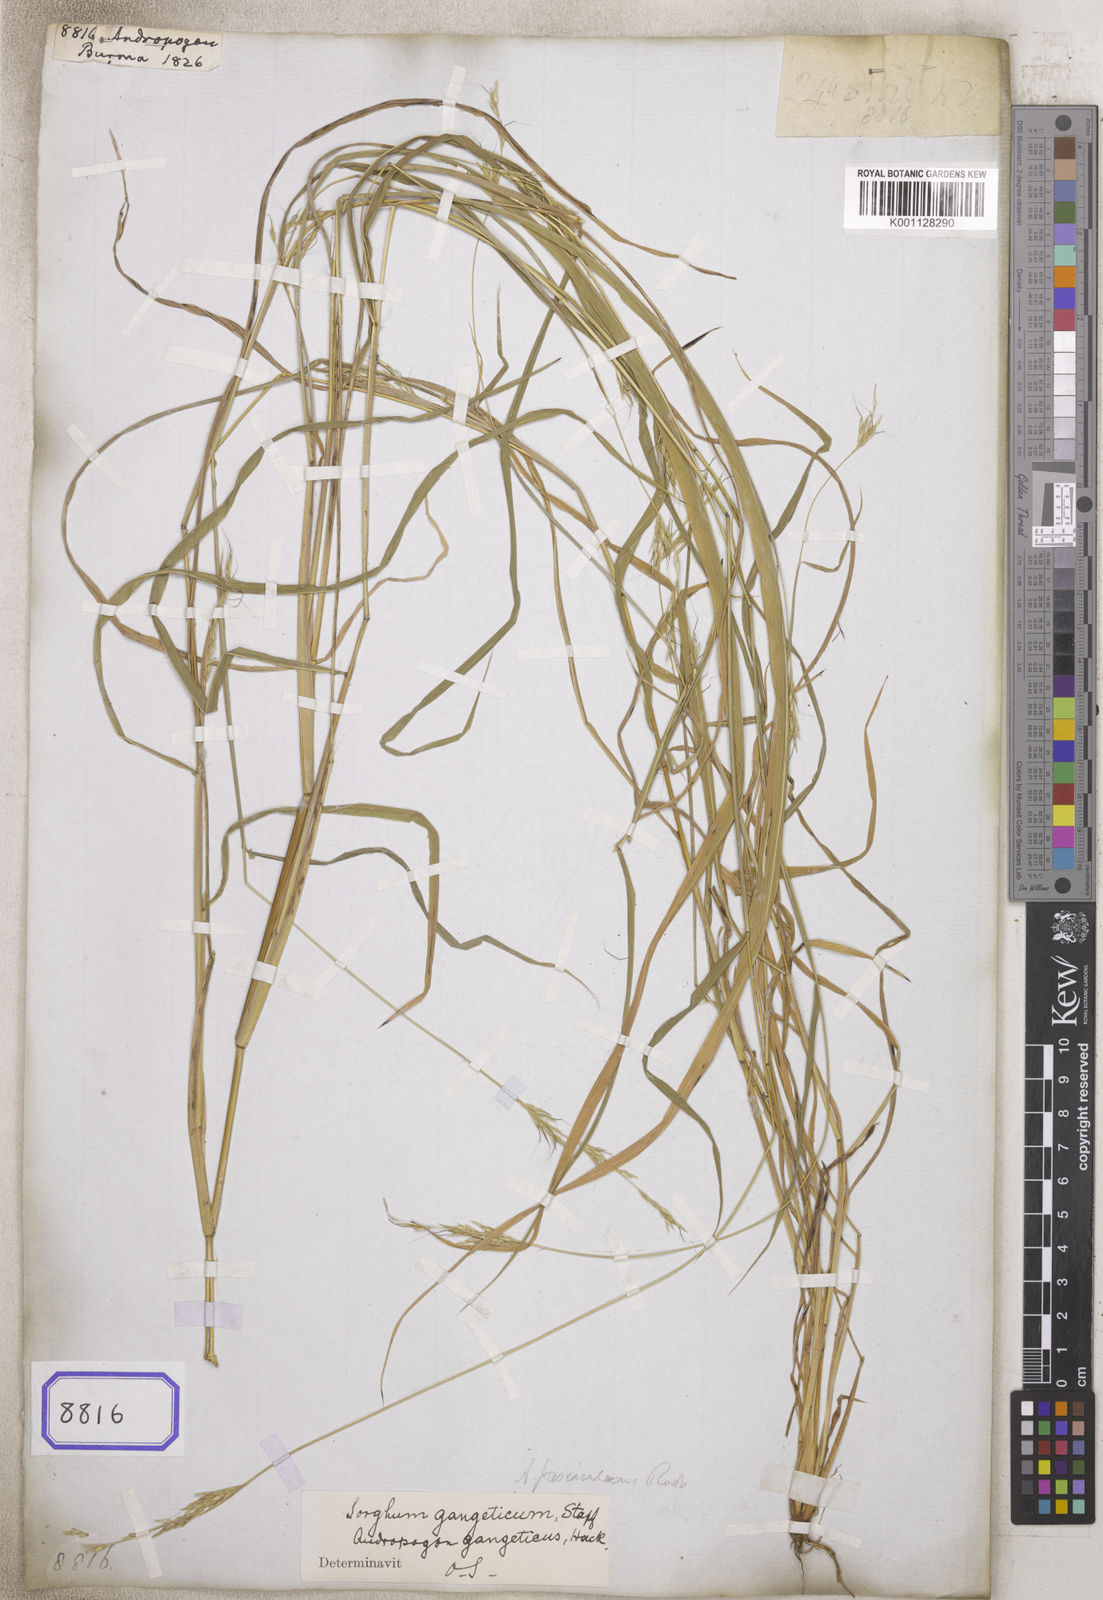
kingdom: Plantae
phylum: Tracheophyta
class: Liliopsida
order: Poales
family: Poaceae
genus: Andropogon
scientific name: Andropogon
